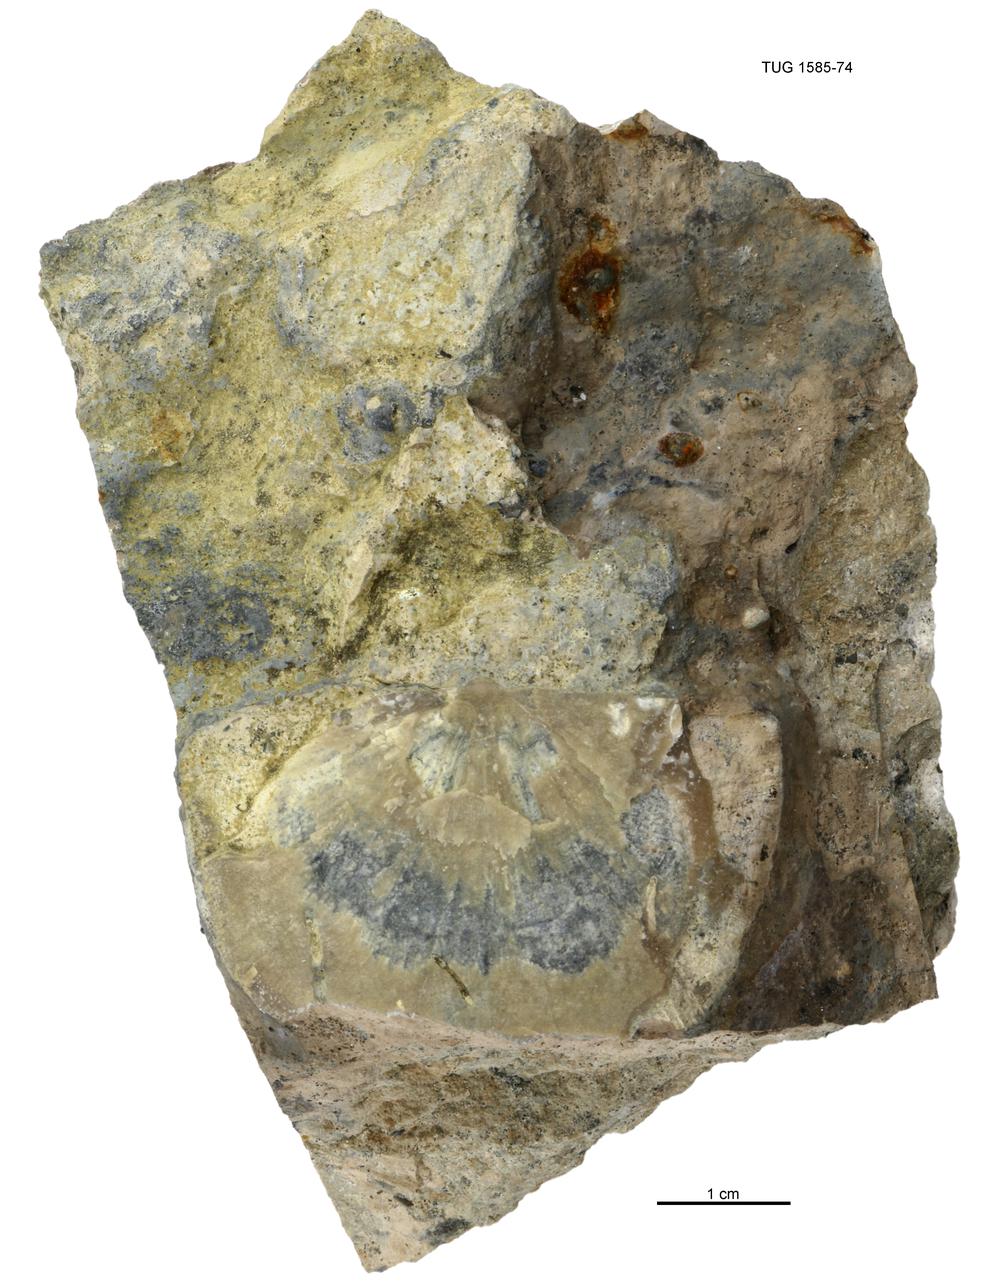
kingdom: Animalia
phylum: Mollusca
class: Cephalopoda
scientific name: Cephalopoda
